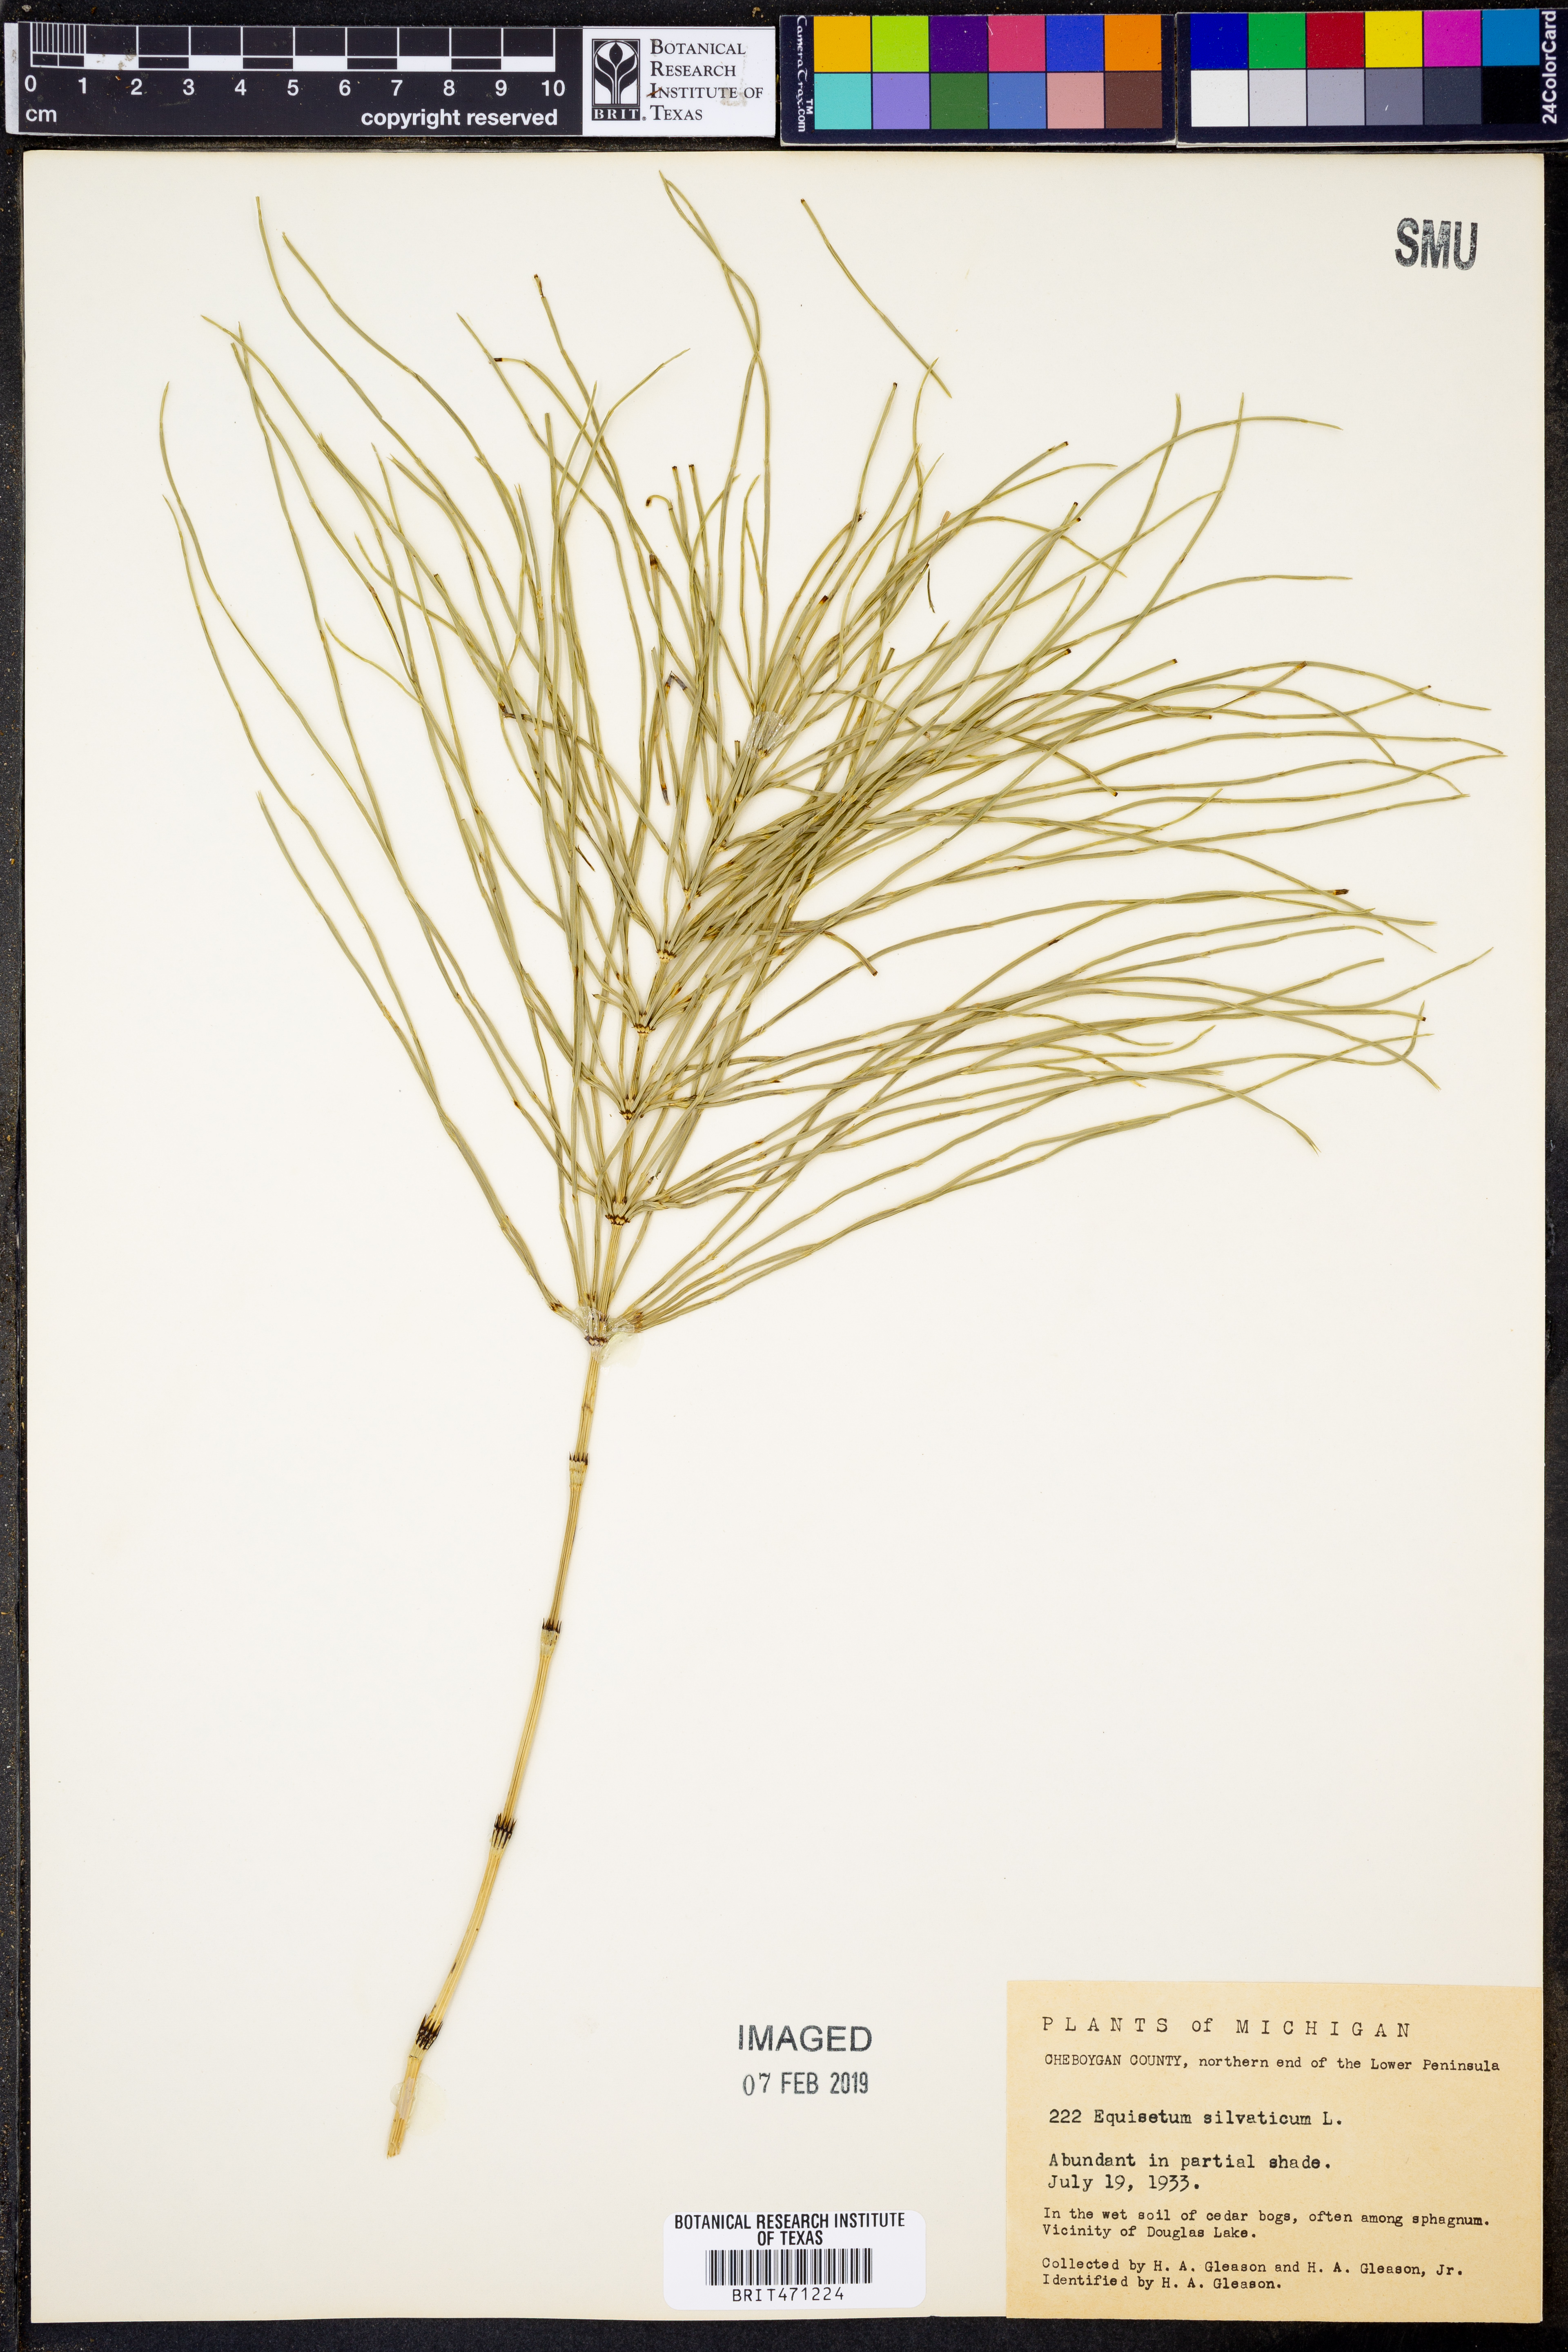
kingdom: Plantae
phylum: Tracheophyta
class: Polypodiopsida
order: Equisetales
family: Equisetaceae
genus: Equisetum
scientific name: Equisetum arvense
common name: Field horsetail
